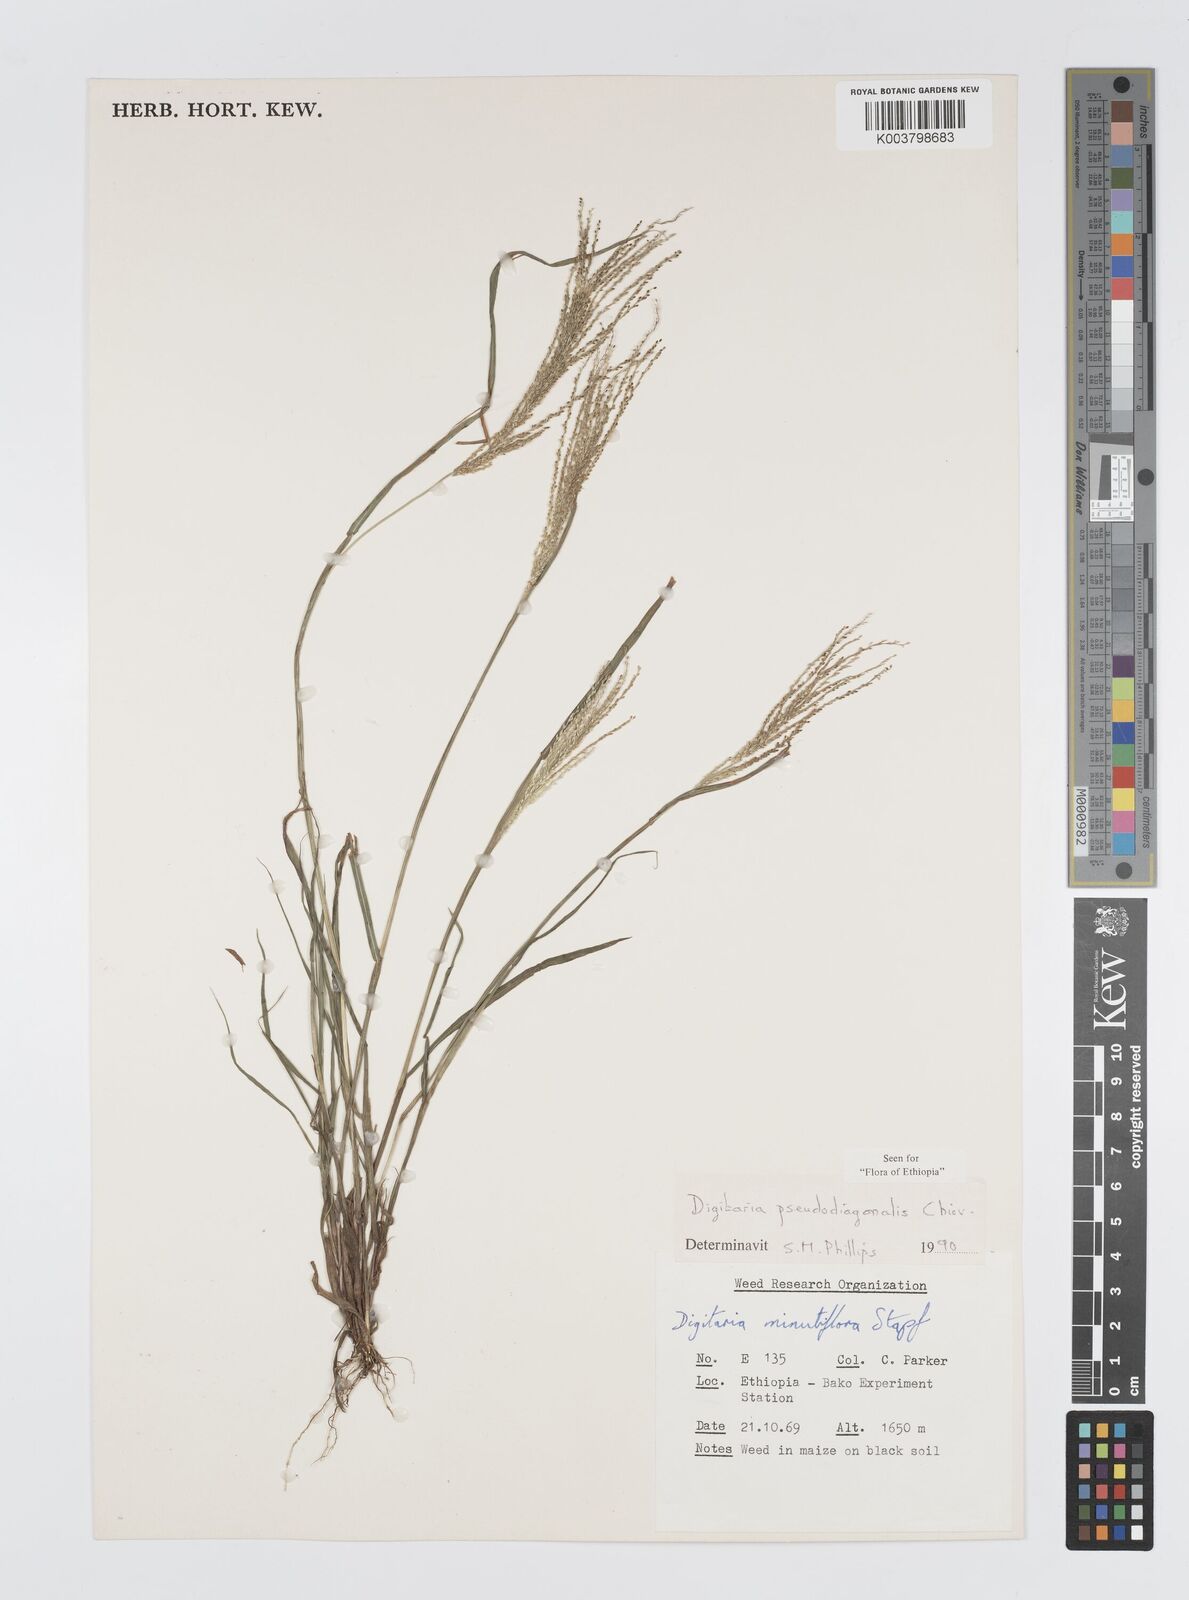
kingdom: Plantae
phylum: Tracheophyta
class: Liliopsida
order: Poales
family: Poaceae
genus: Digitaria
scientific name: Digitaria pseudodiagonalis
